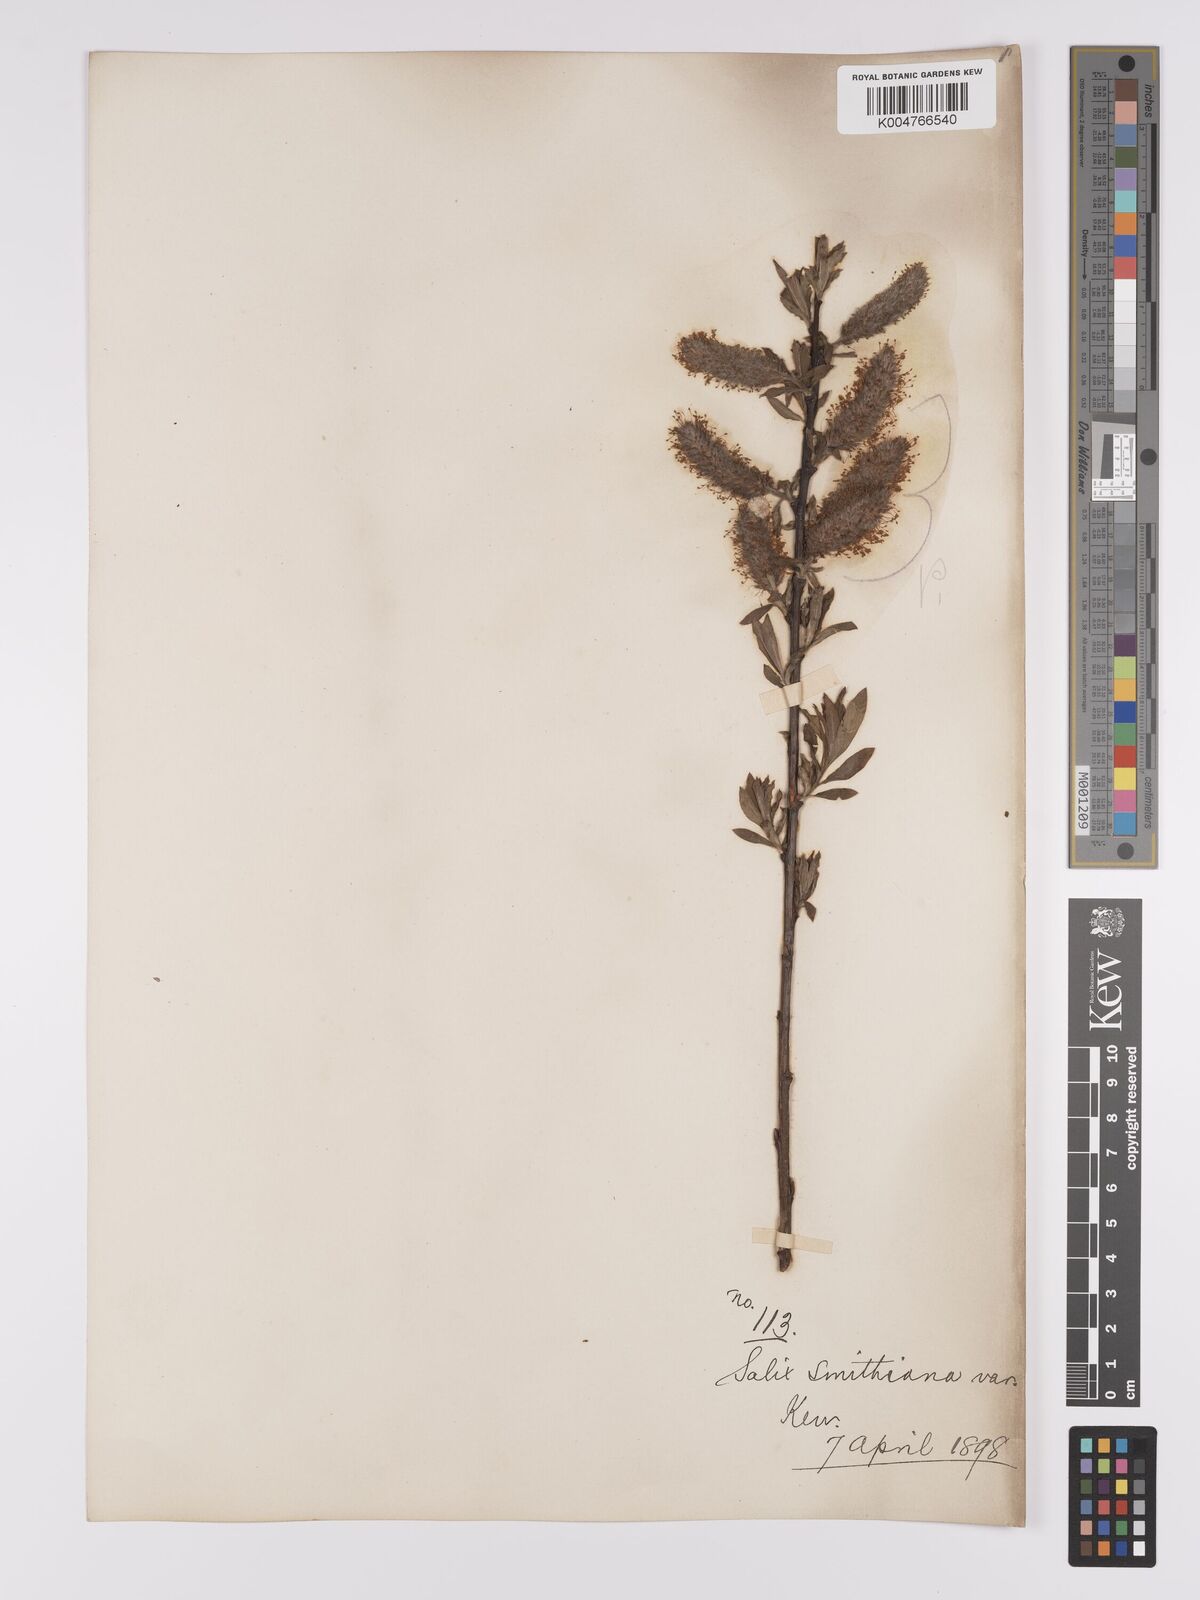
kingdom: Plantae
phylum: Tracheophyta
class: Magnoliopsida
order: Malpighiales
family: Salicaceae
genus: Salix
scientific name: Salix caprea
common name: Goat willow
